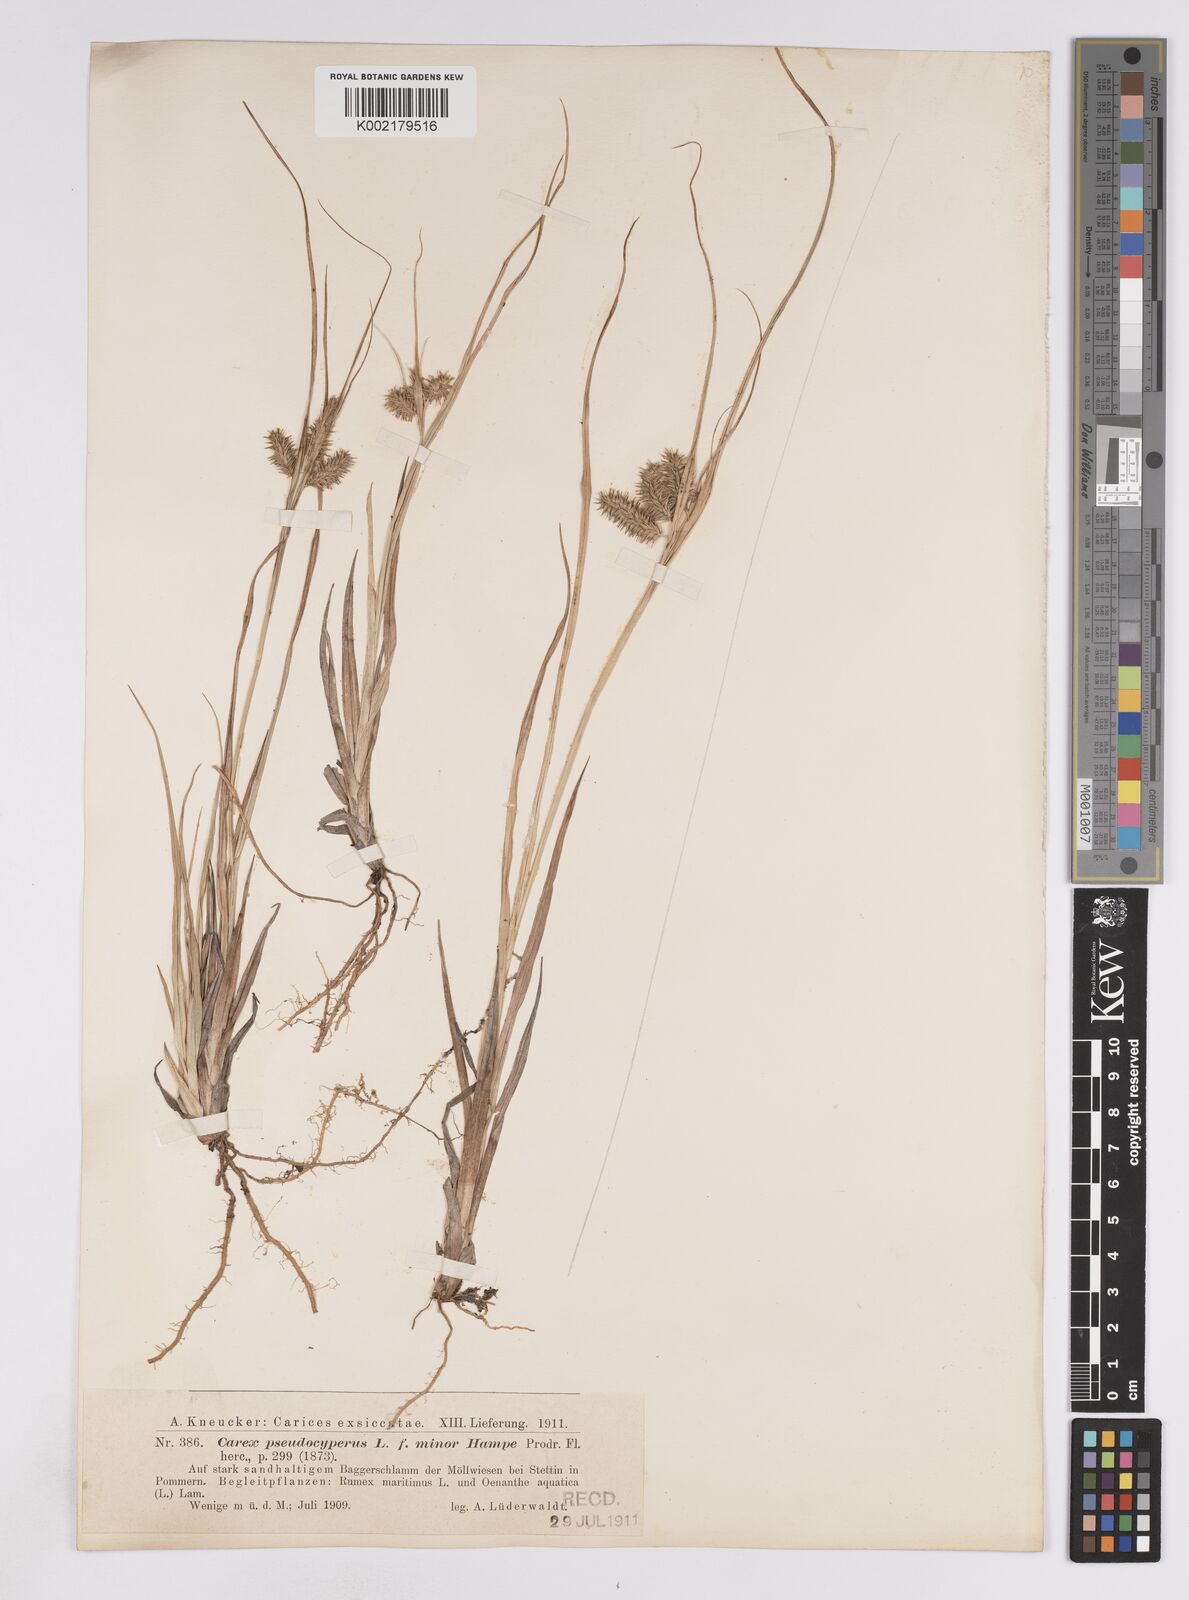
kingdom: Plantae
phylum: Tracheophyta
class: Liliopsida
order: Poales
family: Cyperaceae
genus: Carex
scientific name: Carex pseudocyperus
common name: Cyperus sedge
